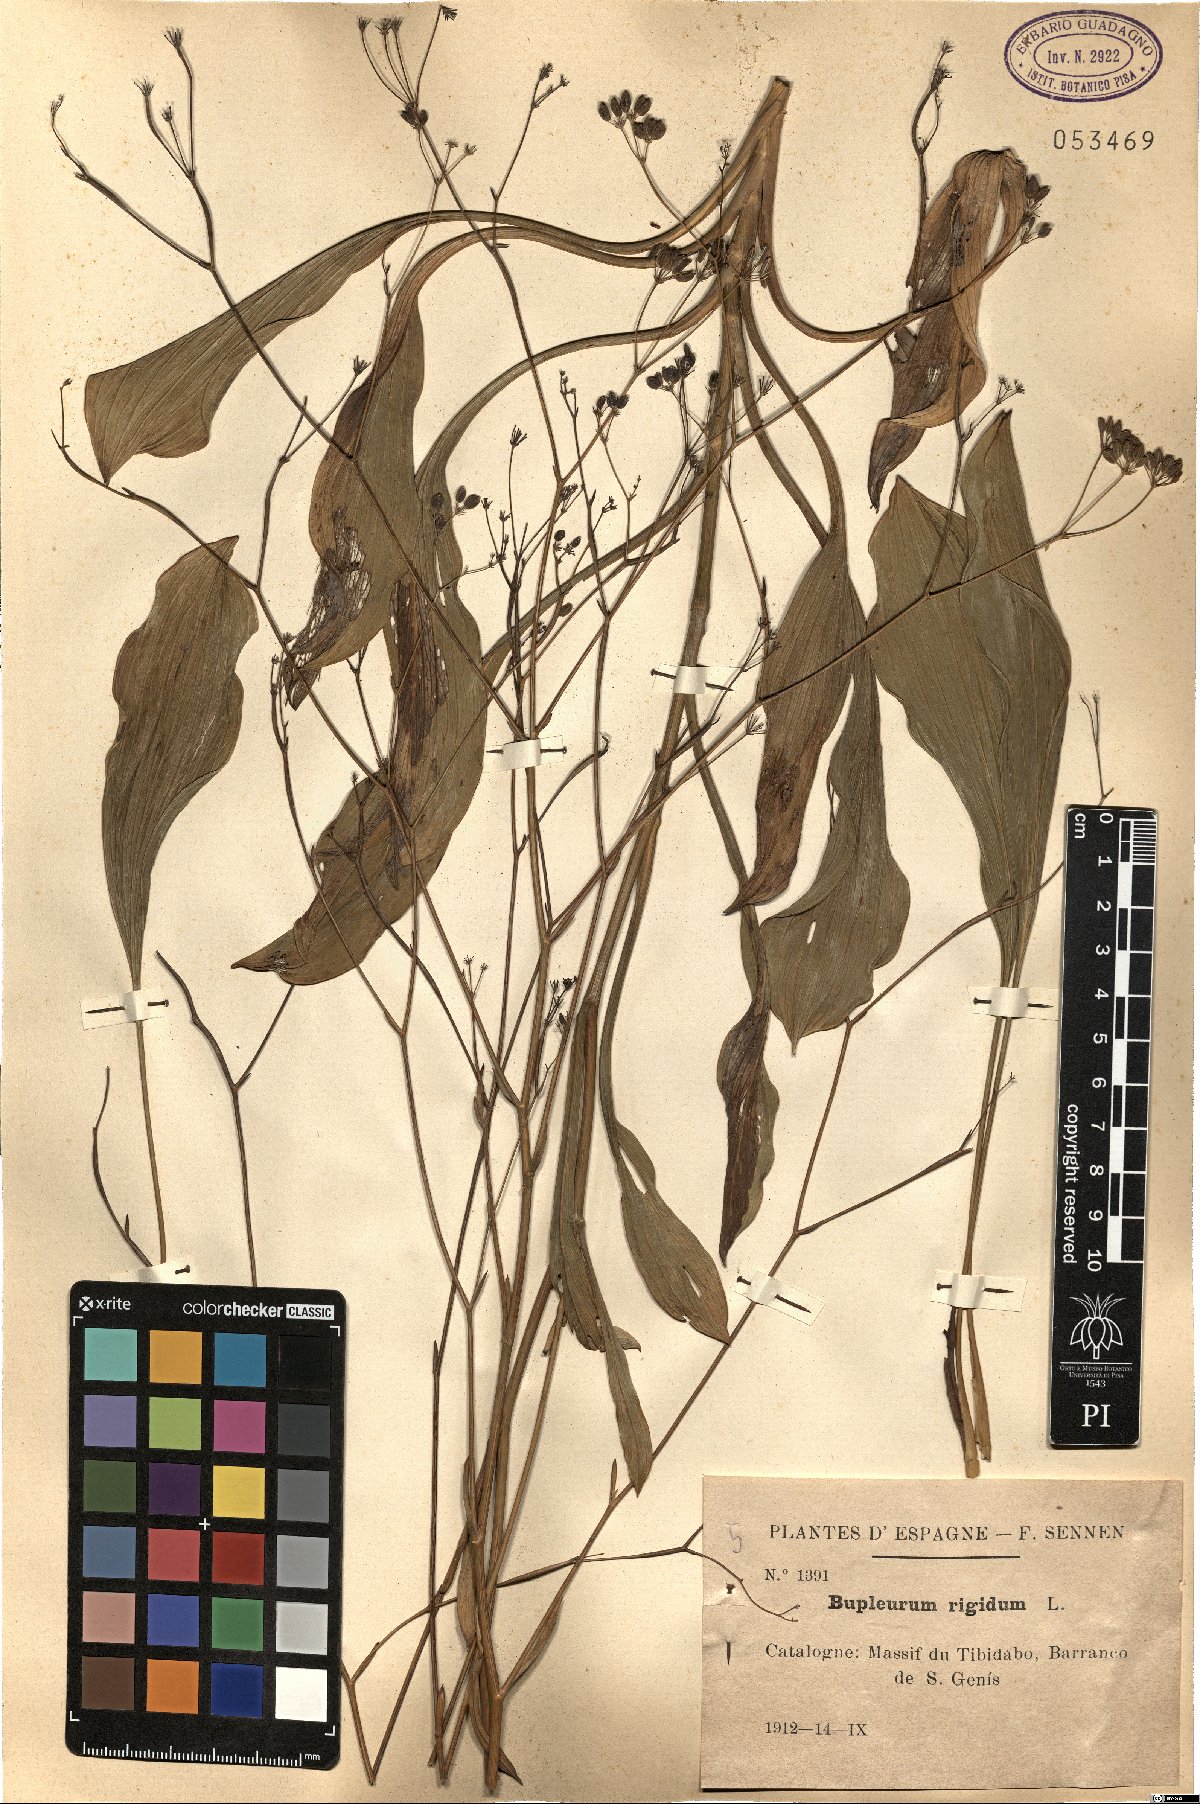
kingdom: Plantae
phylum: Tracheophyta
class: Magnoliopsida
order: Apiales
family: Apiaceae
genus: Bupleurum
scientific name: Bupleurum rigidum
